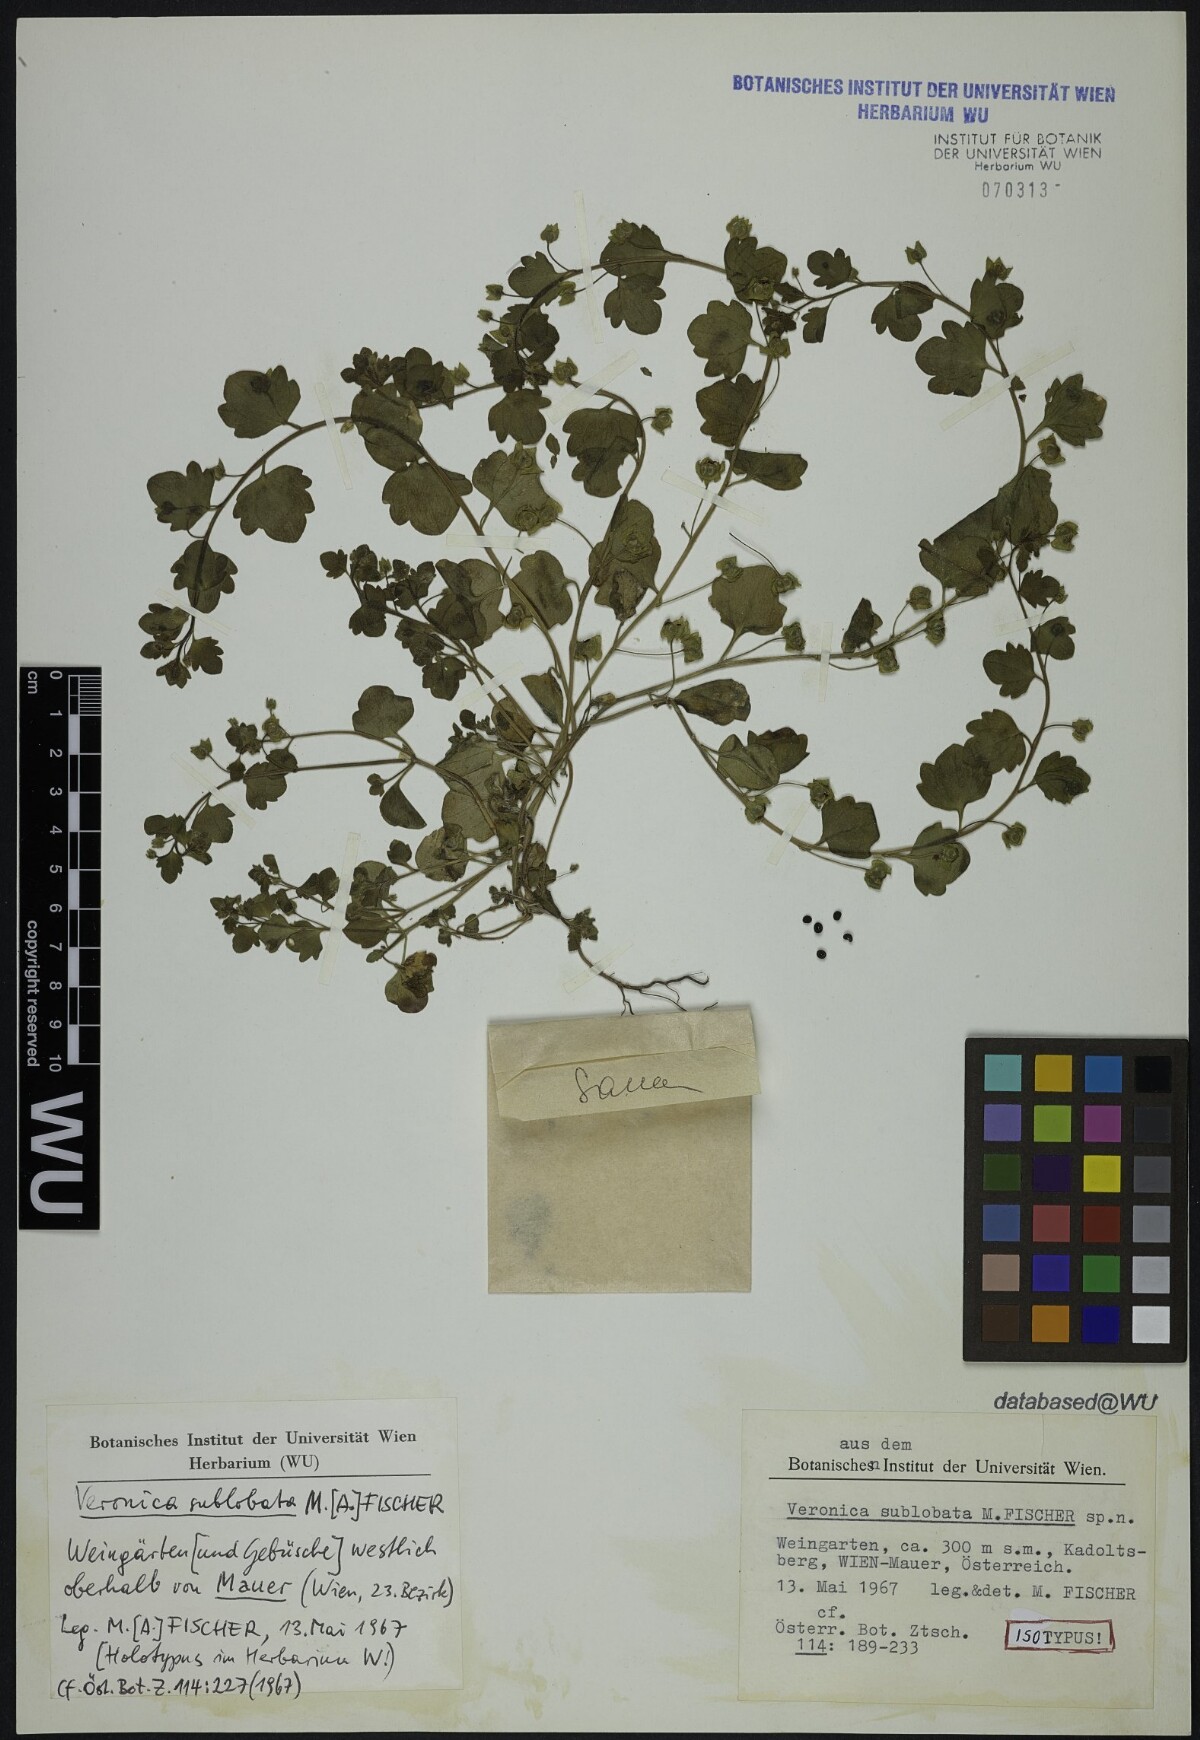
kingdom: Plantae
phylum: Tracheophyta
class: Magnoliopsida
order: Lamiales
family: Plantaginaceae
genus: Veronica
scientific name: Veronica sublobata
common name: False ivy-leaved speedwell
